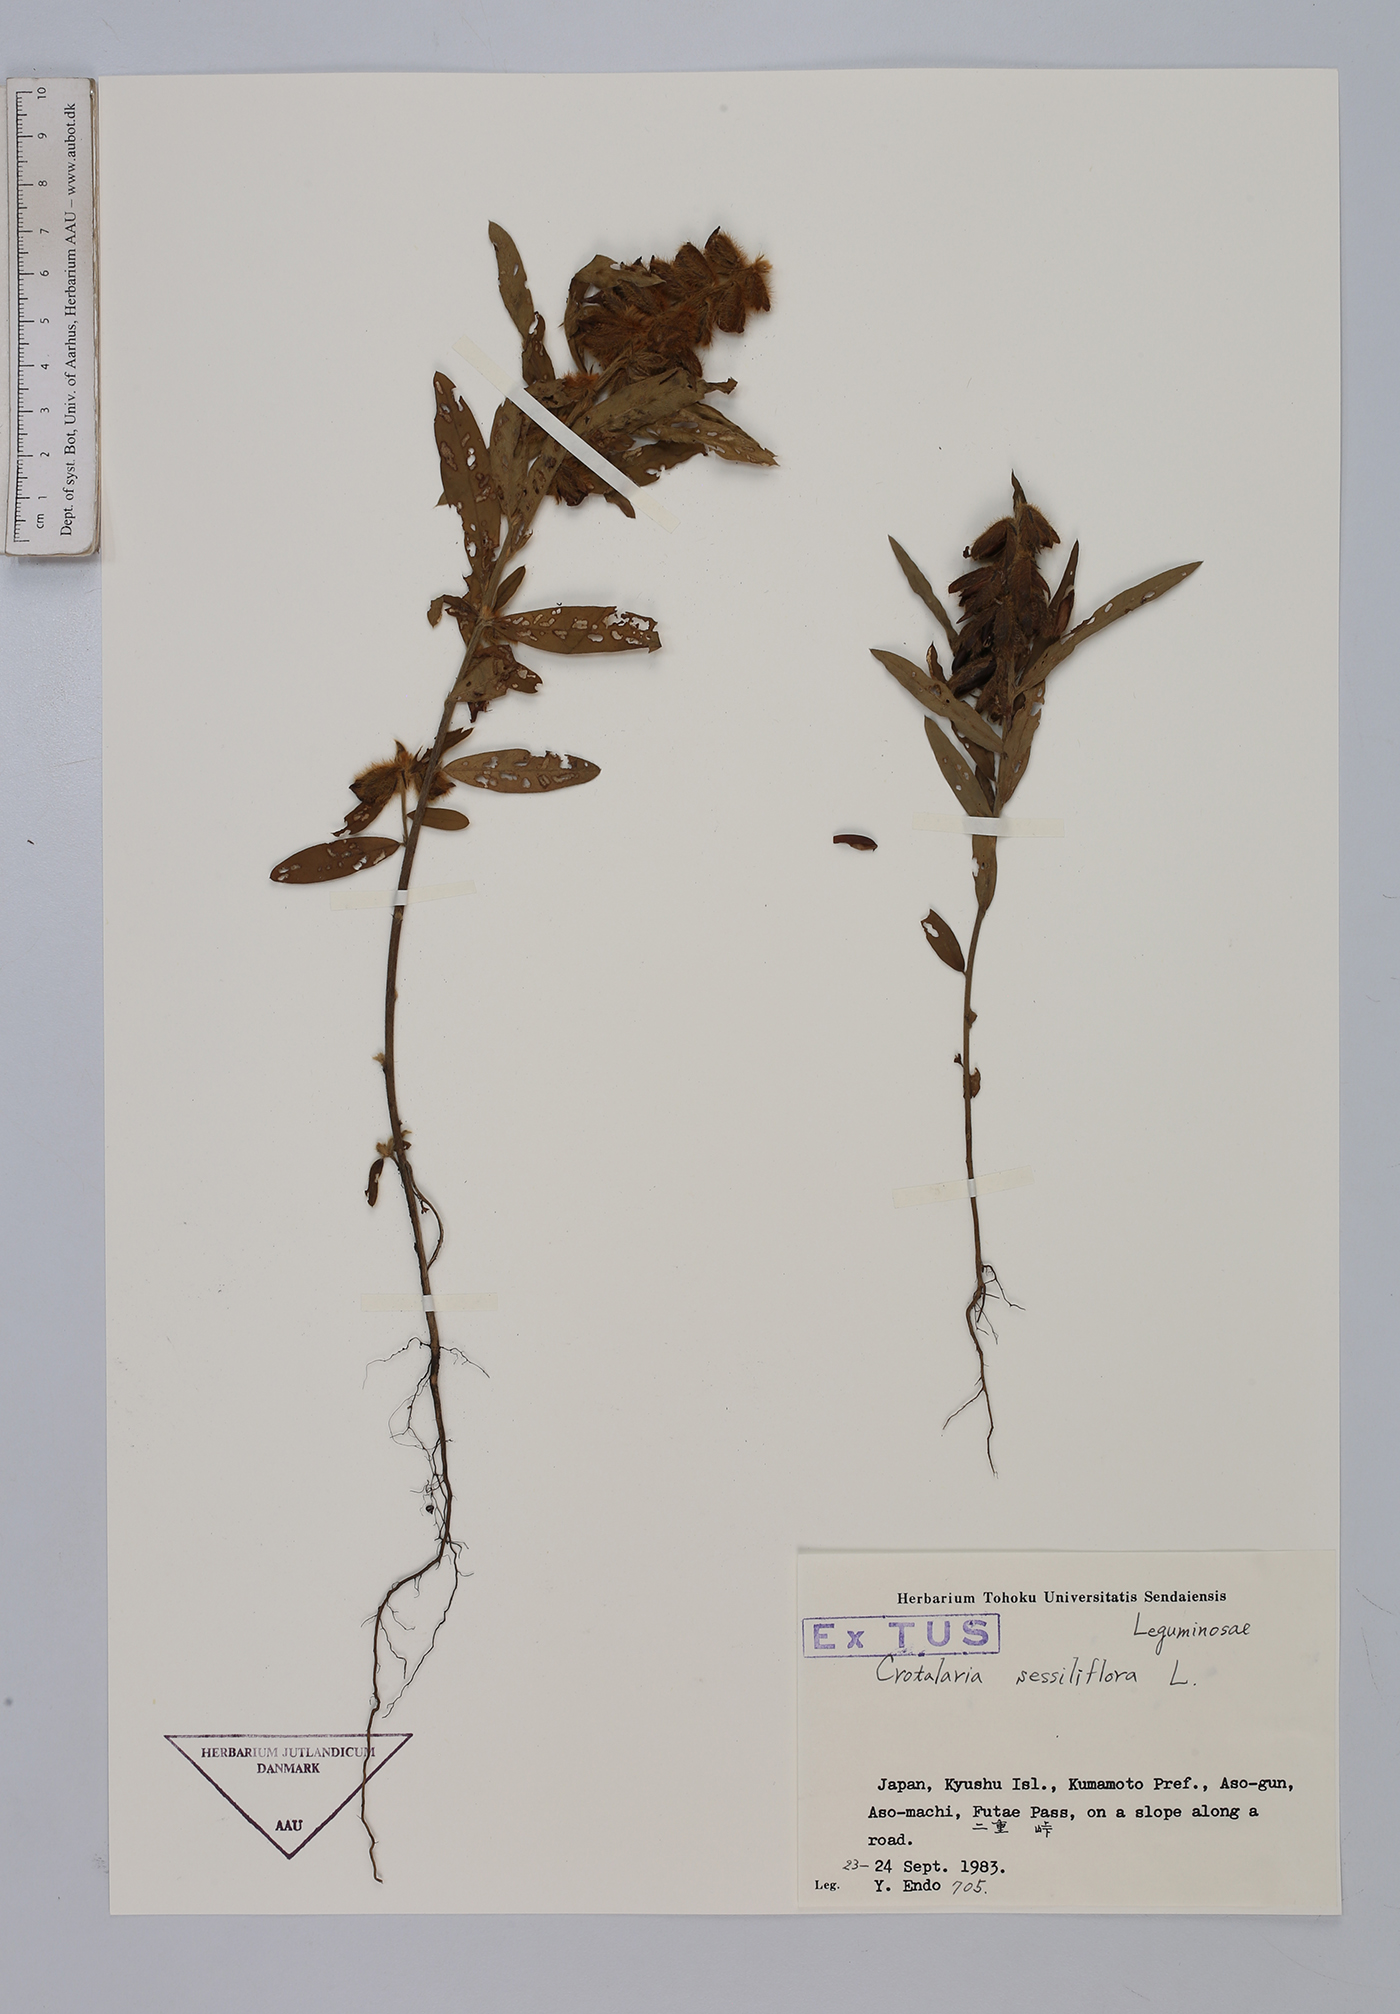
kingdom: Plantae
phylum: Tracheophyta
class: Magnoliopsida
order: Fabales
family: Fabaceae
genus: Crotalaria
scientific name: Crotalaria sessiliflora
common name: Rattlebox
